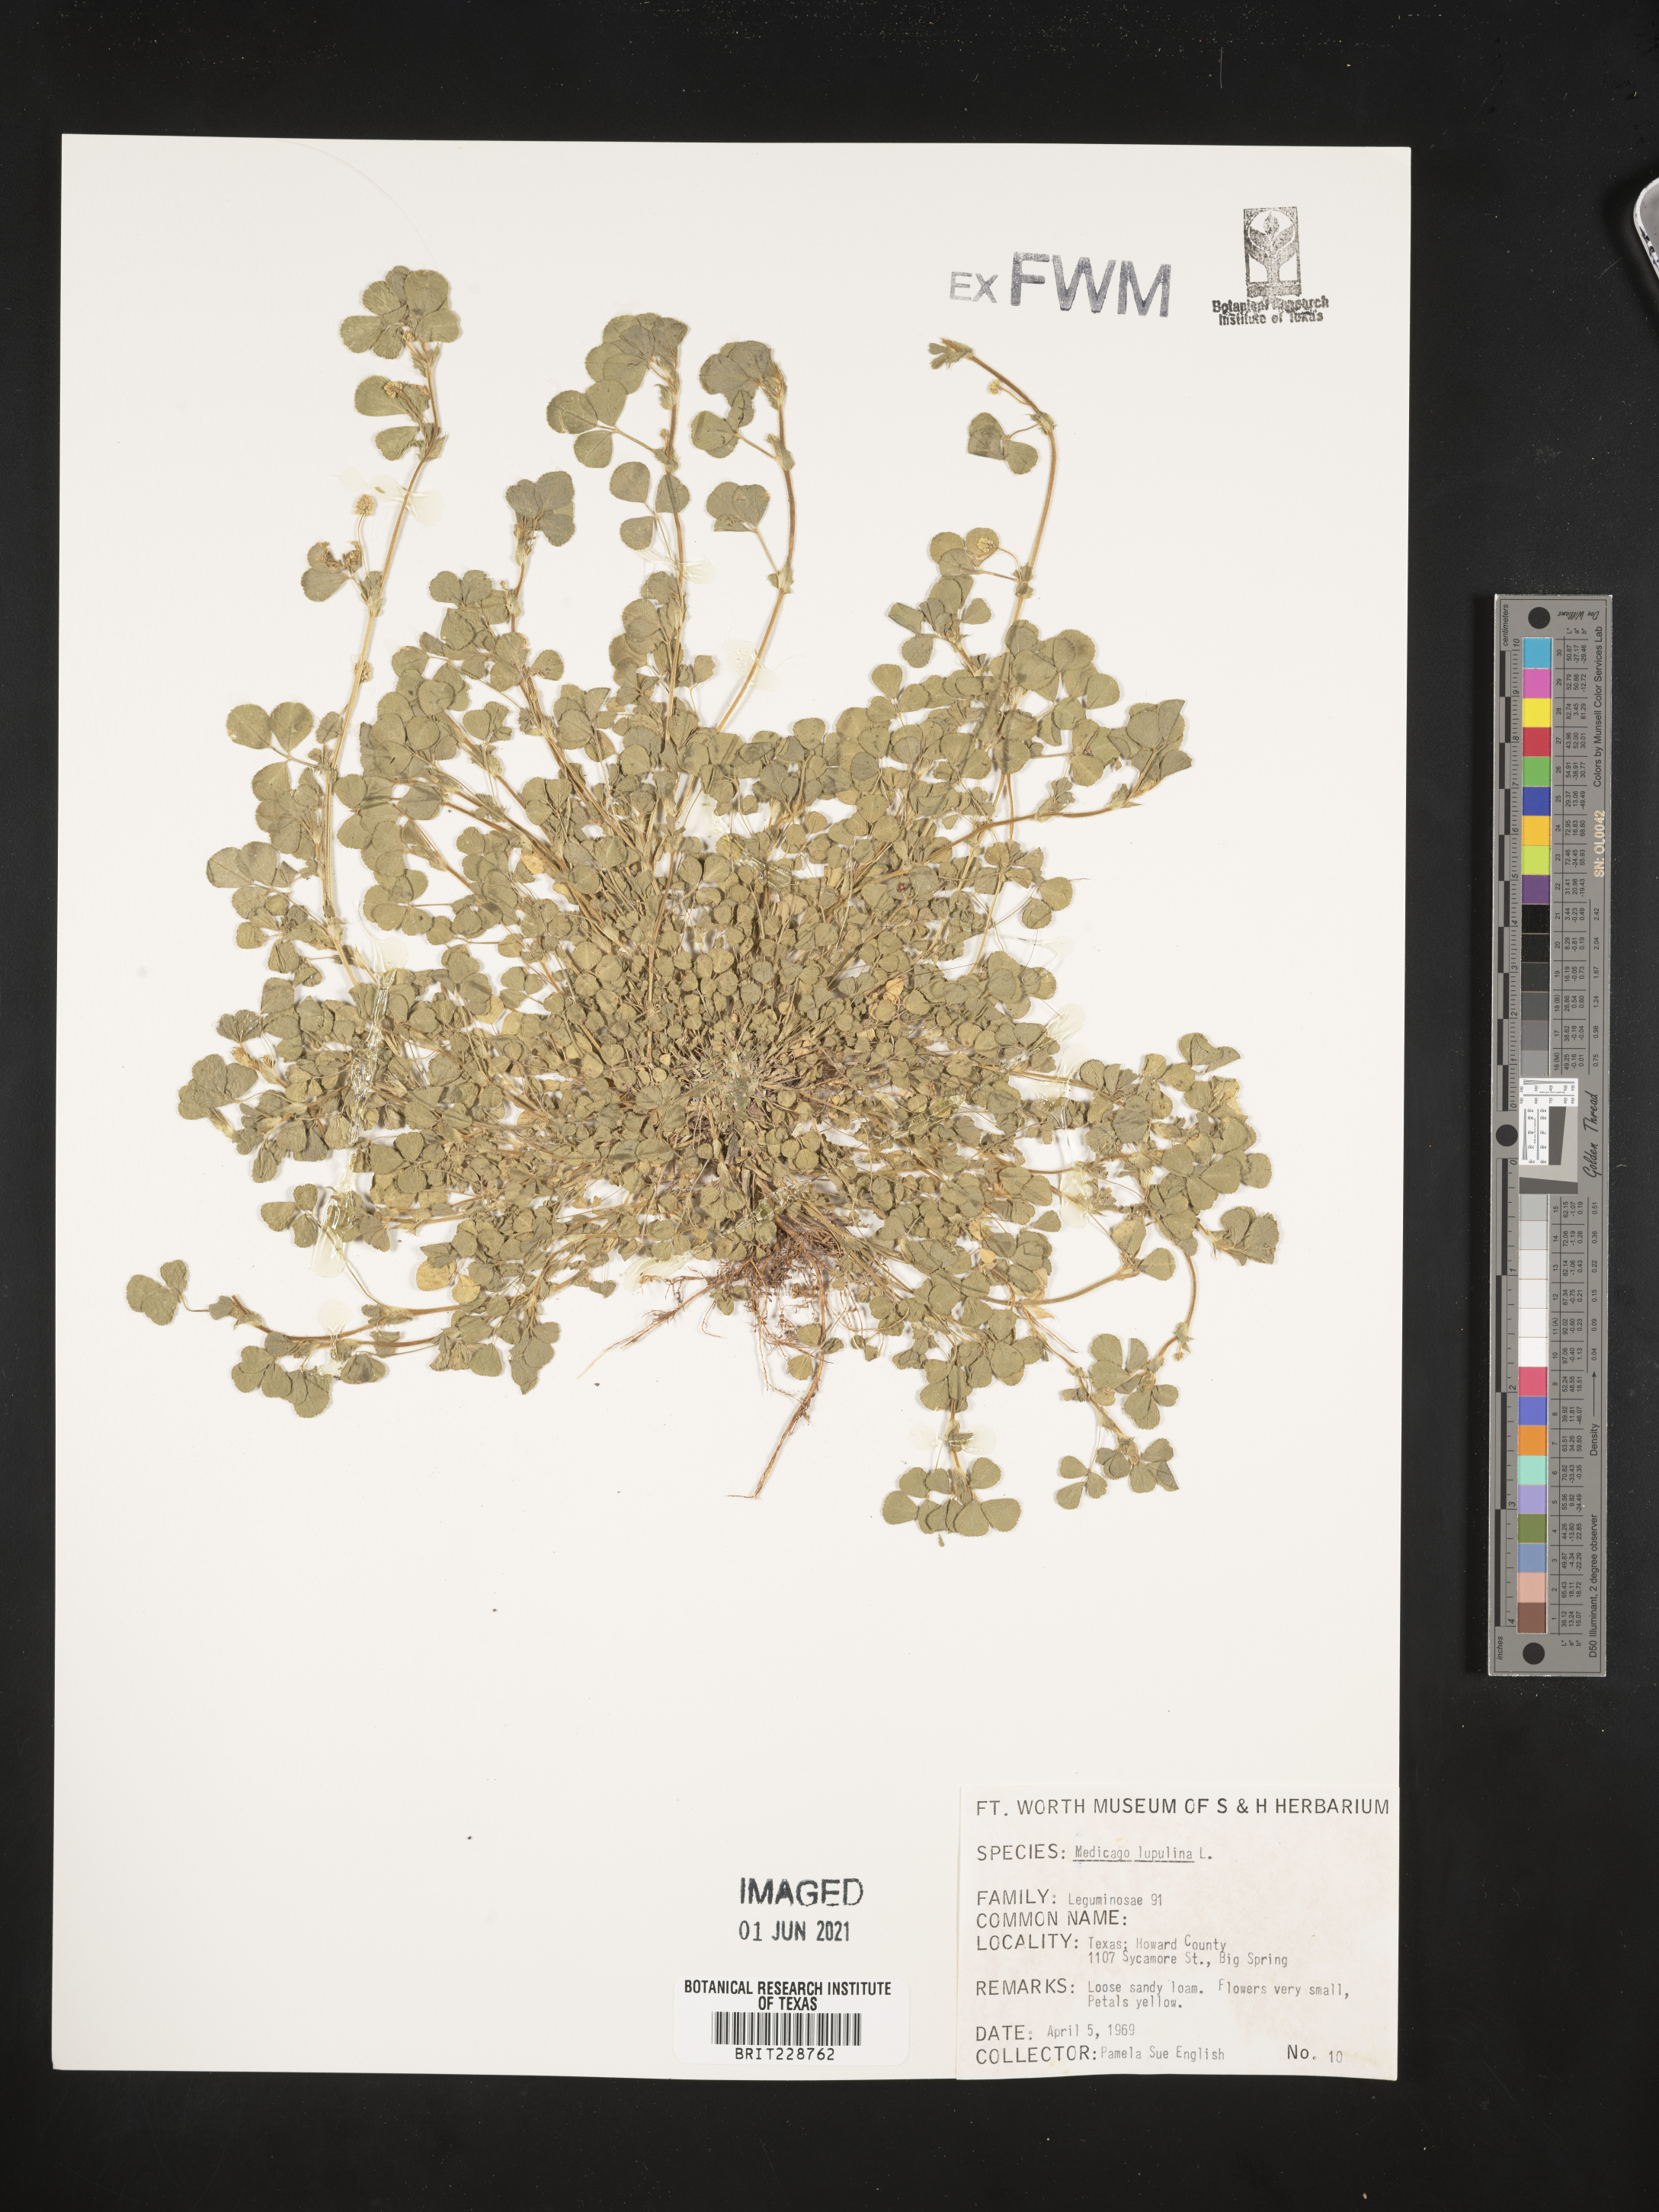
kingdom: Plantae
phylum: Tracheophyta
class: Magnoliopsida
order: Fabales
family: Fabaceae
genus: Medicago
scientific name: Medicago lupulina
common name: Black medick
